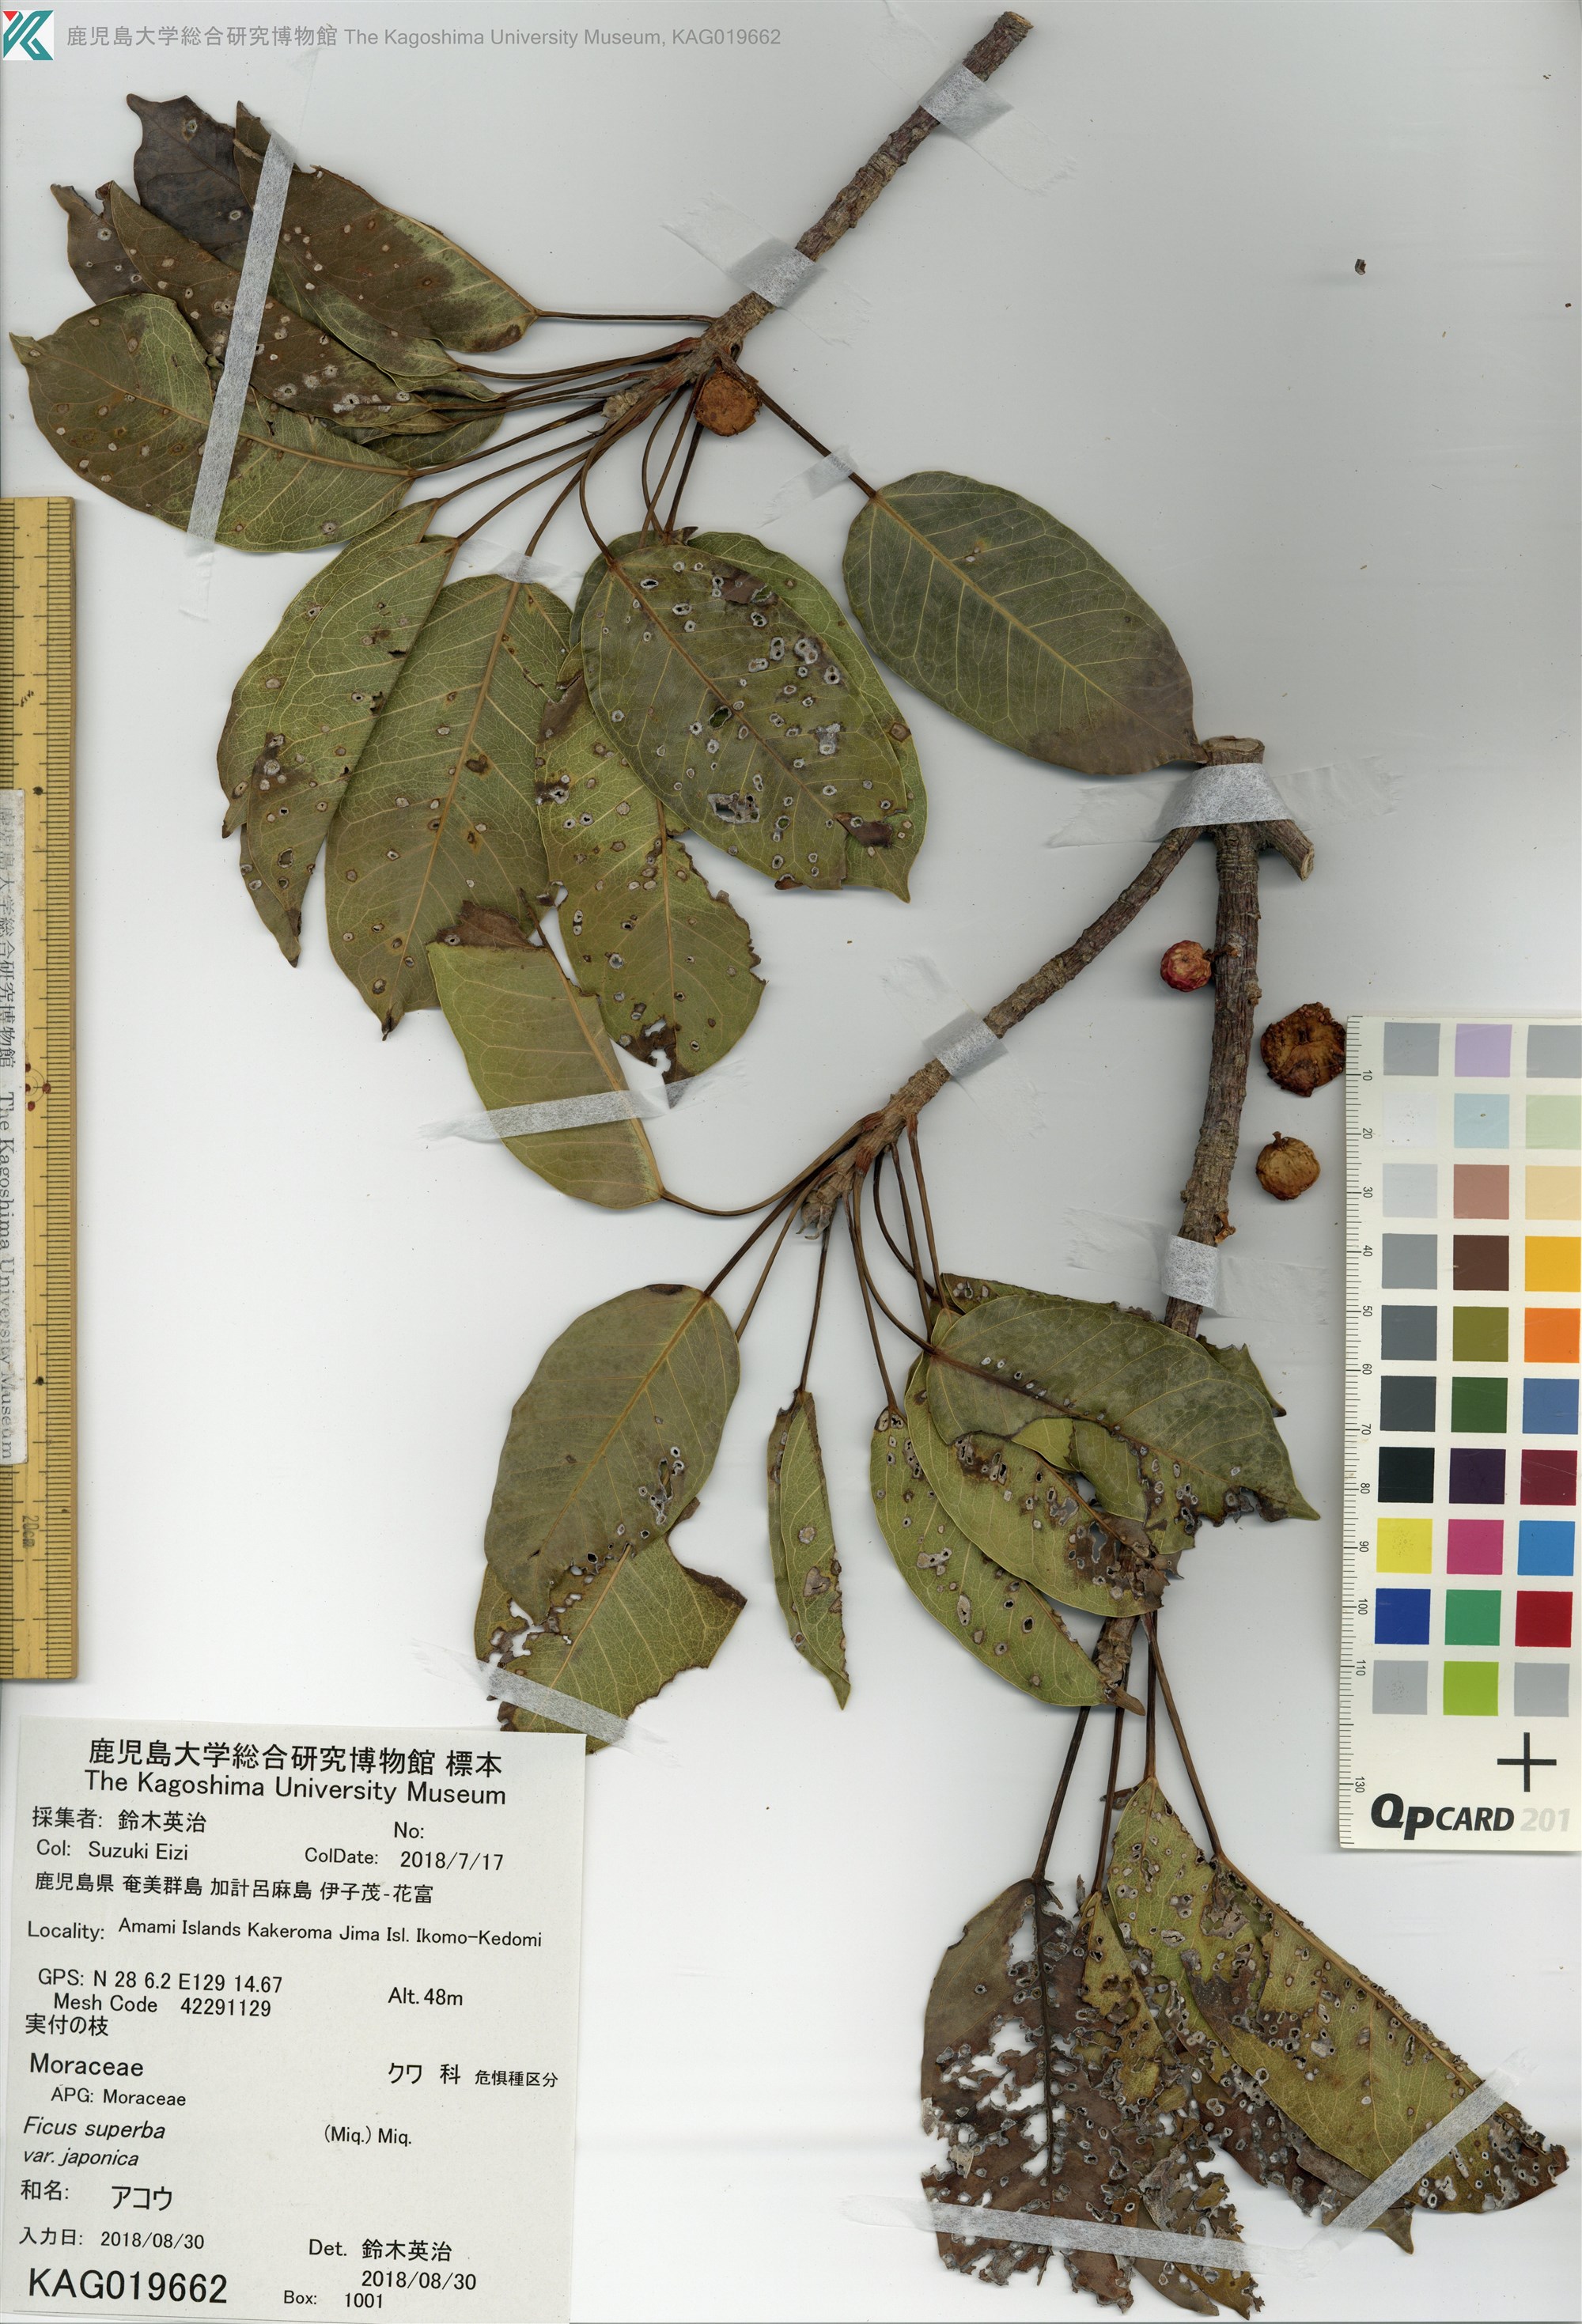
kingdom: Plantae
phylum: Tracheophyta
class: Magnoliopsida
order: Rosales
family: Moraceae
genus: Ficus
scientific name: Ficus subpisocarpa
